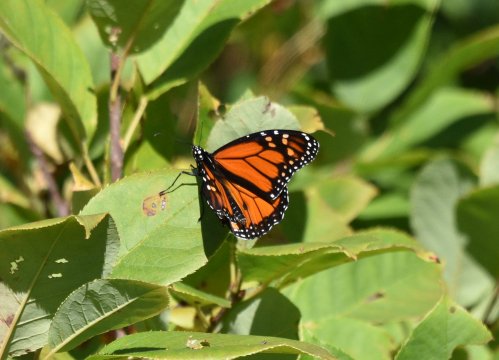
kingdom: Animalia
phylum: Arthropoda
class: Insecta
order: Lepidoptera
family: Nymphalidae
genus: Danaus
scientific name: Danaus plexippus
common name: Monarch
